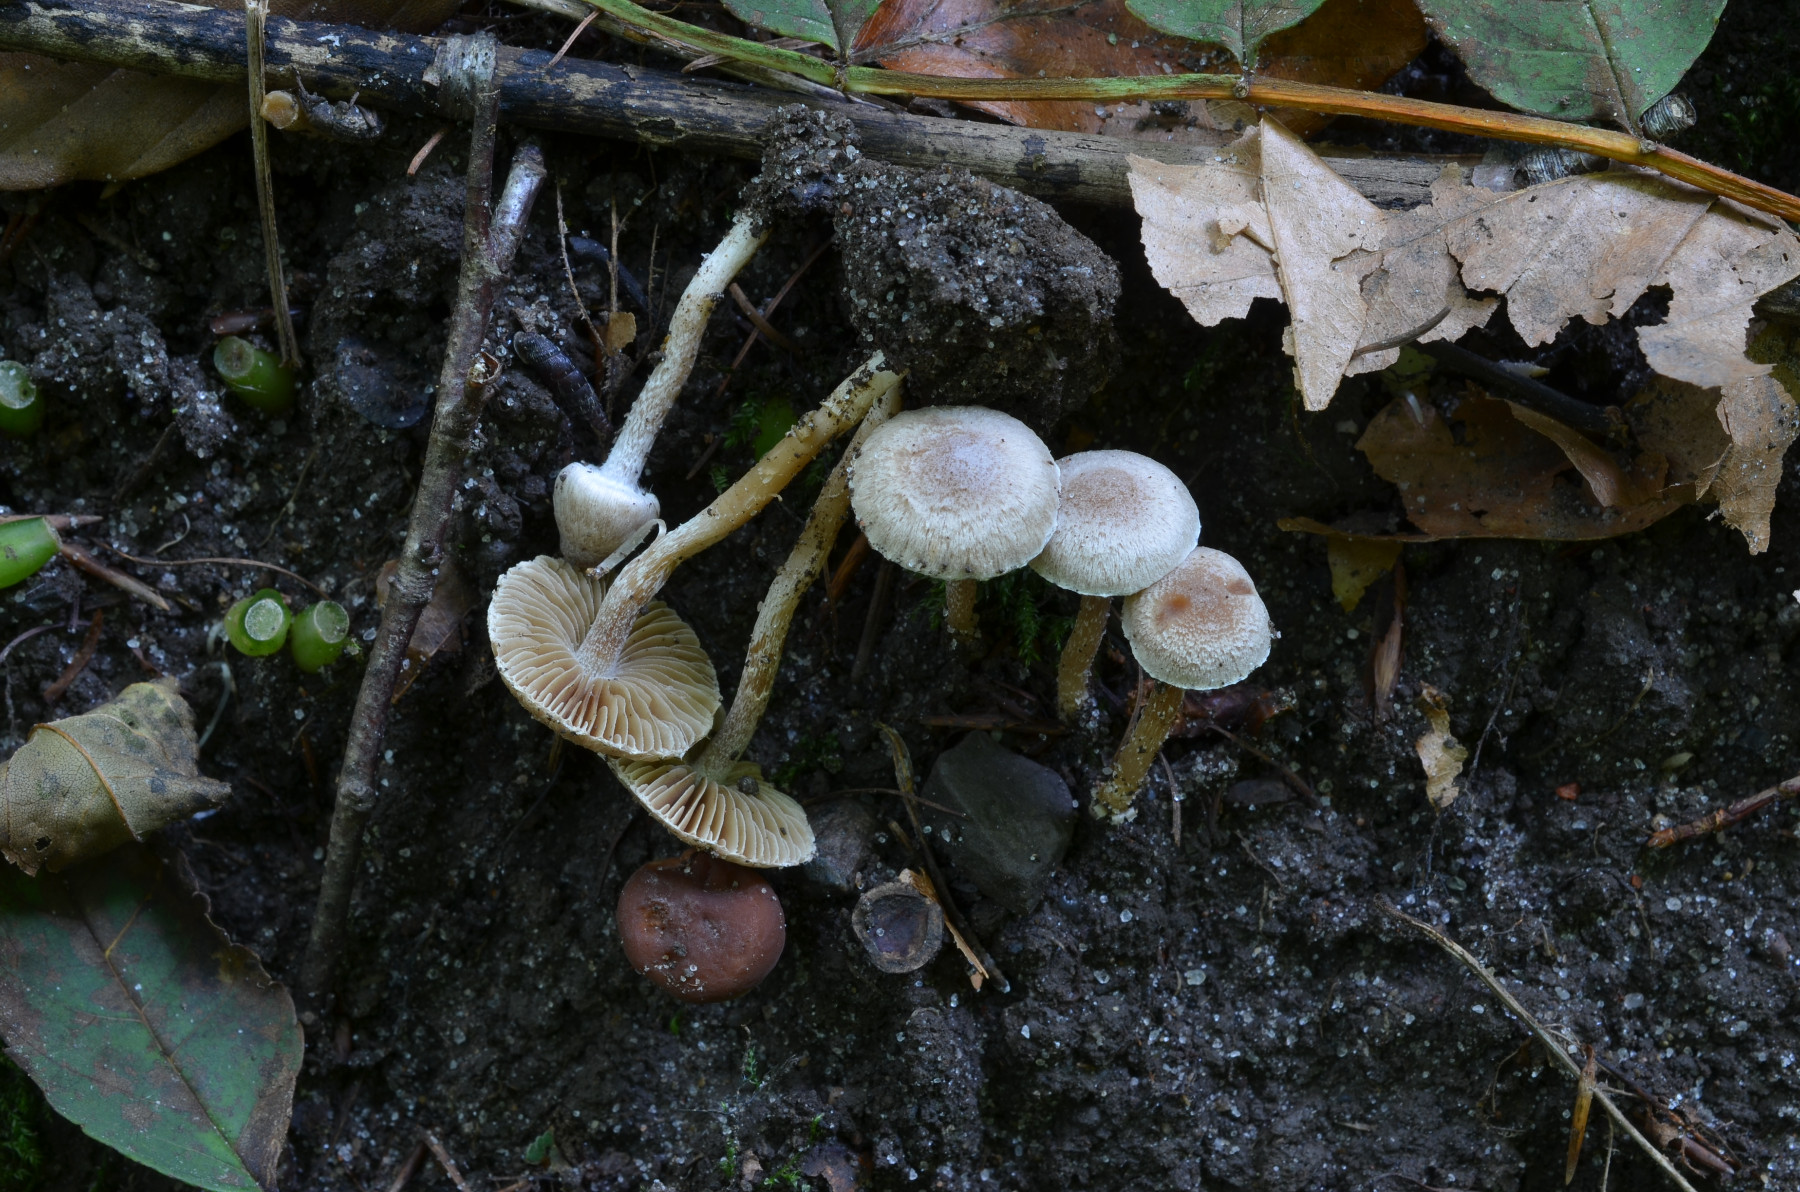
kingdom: Fungi
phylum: Basidiomycota
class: Agaricomycetes
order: Agaricales
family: Inocybaceae
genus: Inocybe
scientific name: Inocybe phaeodisca
